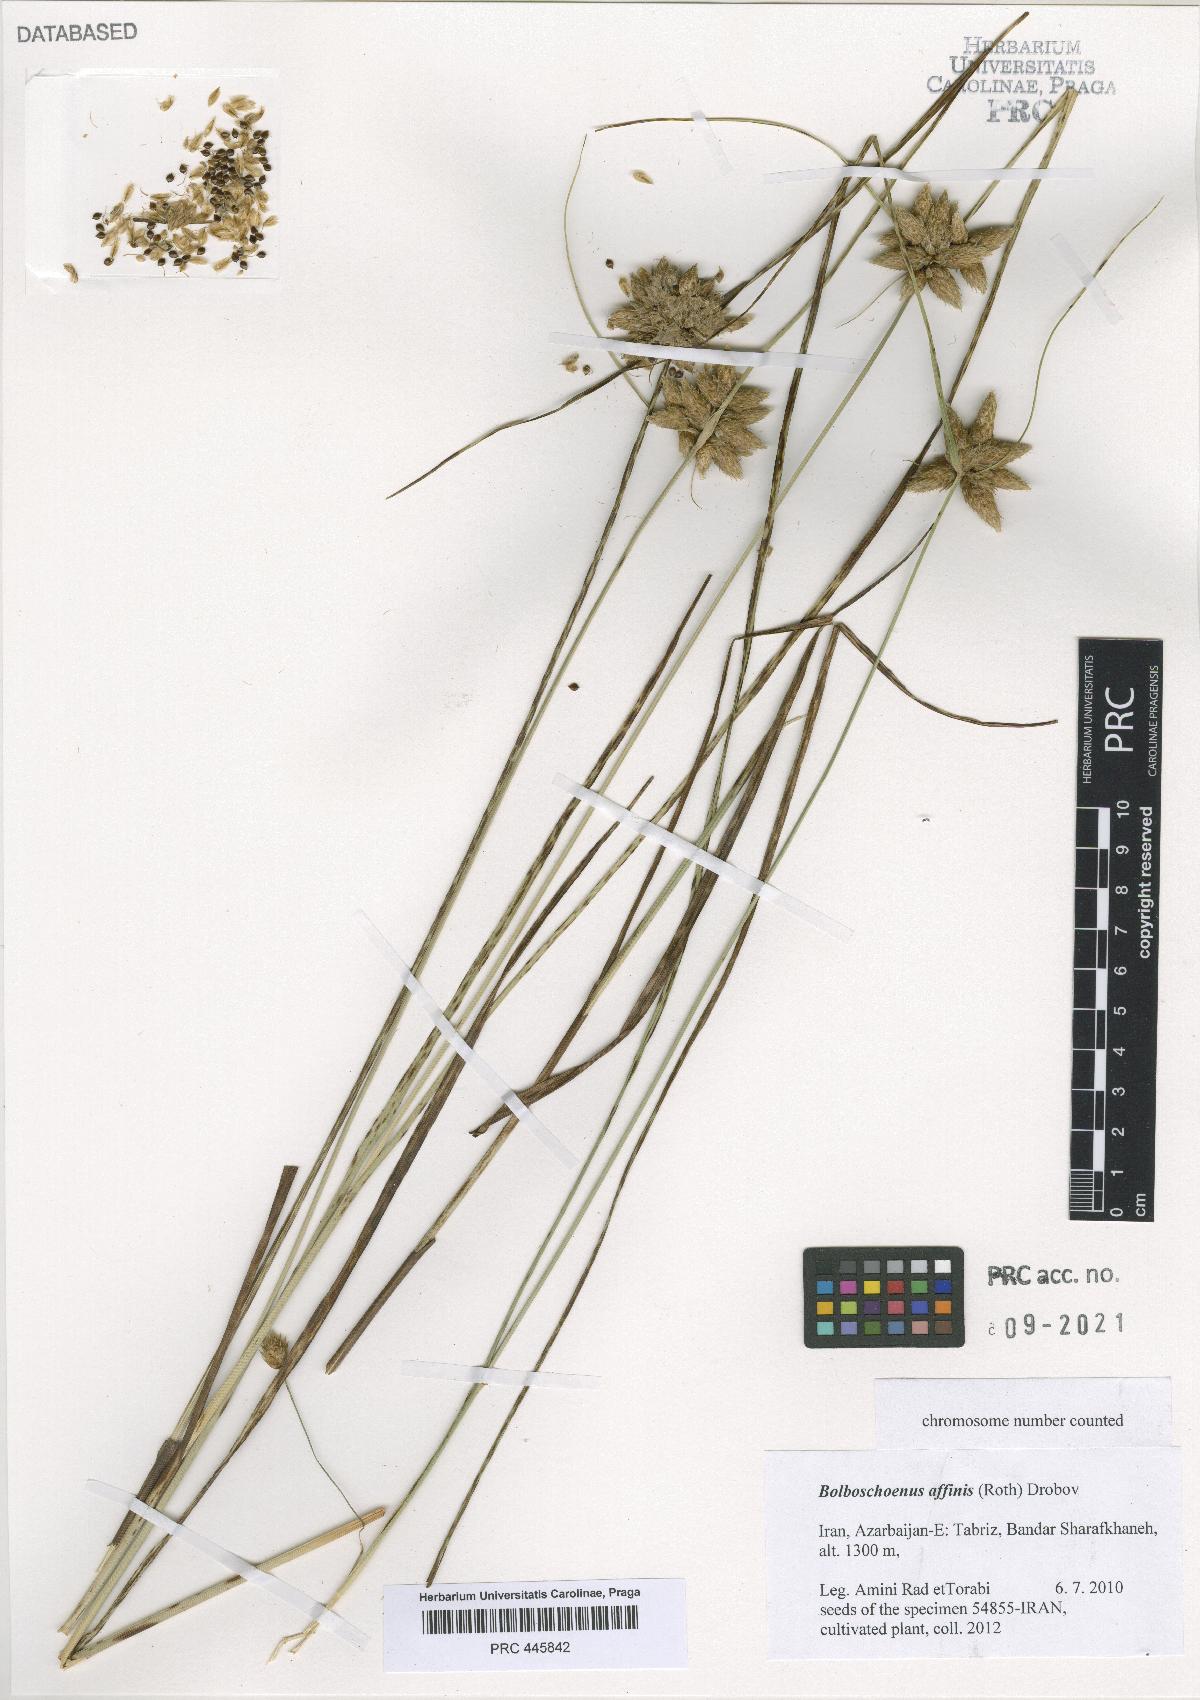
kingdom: Plantae
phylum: Tracheophyta
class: Liliopsida
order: Poales
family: Cyperaceae
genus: Bolboschoenus
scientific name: Bolboschoenus maritimus
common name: Sea club-rush
